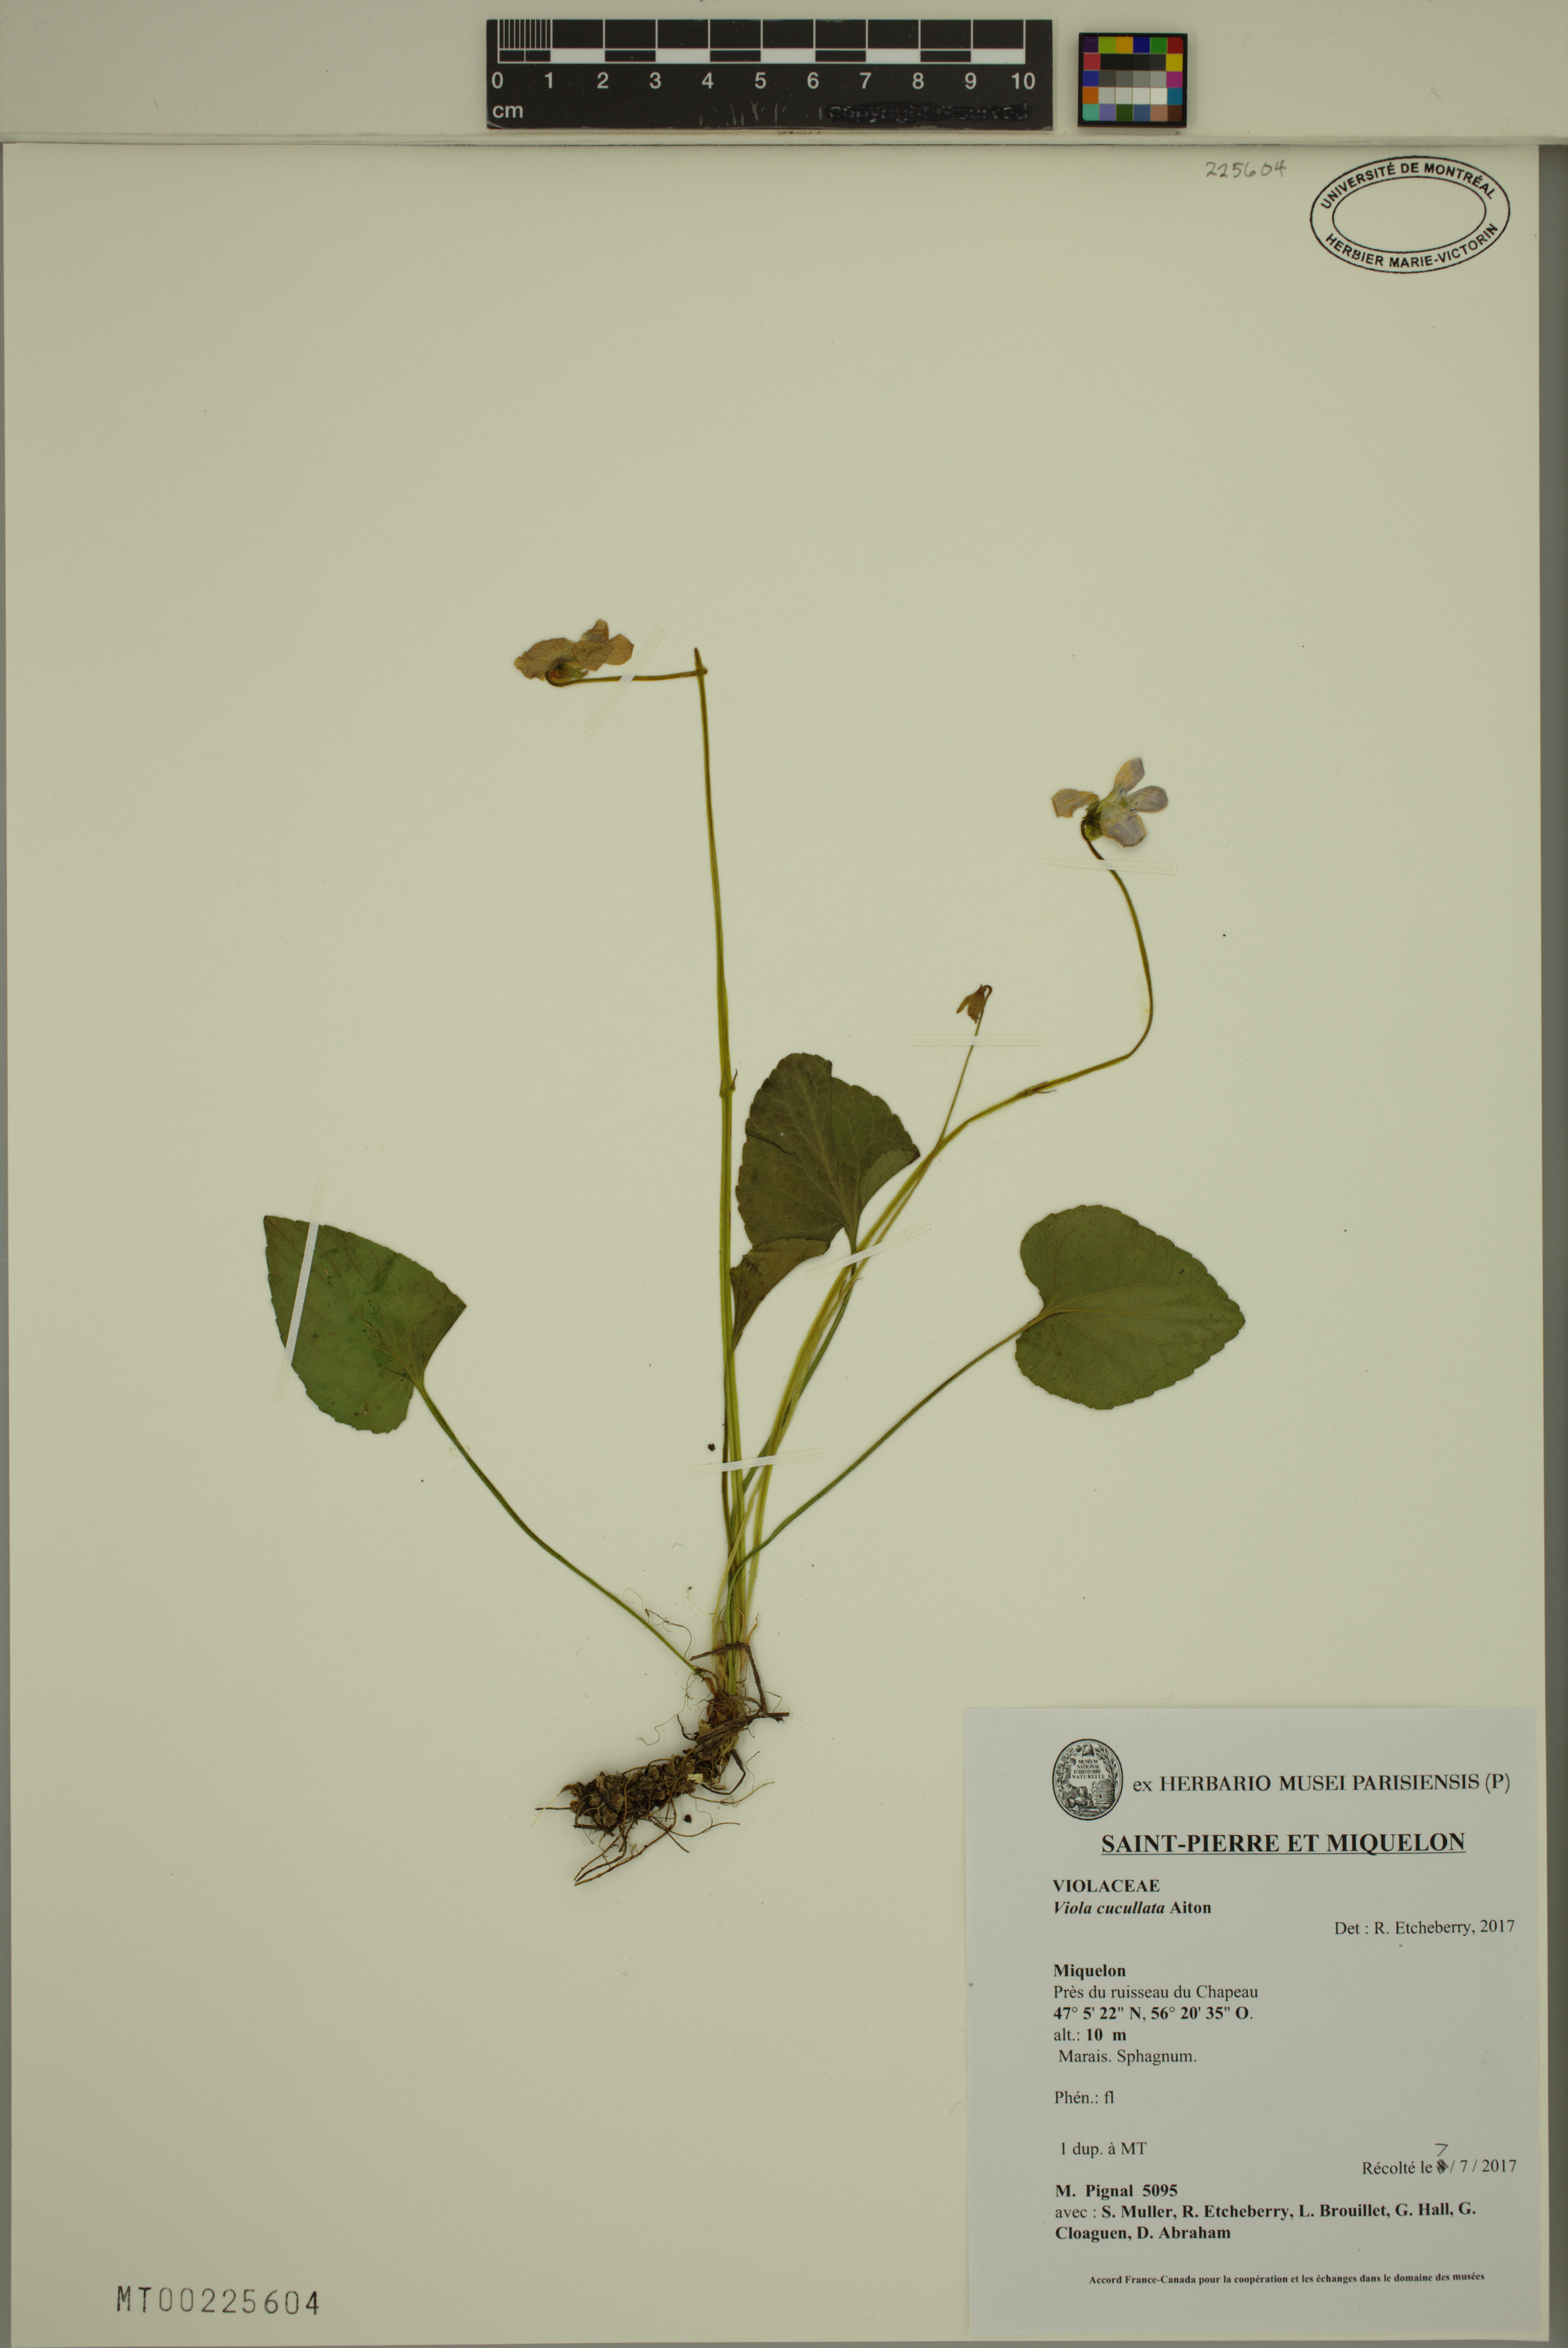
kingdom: Plantae
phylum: Tracheophyta
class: Magnoliopsida
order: Malpighiales
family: Violaceae
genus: Viola
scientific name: Viola cucullata
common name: Marsh blue violet
